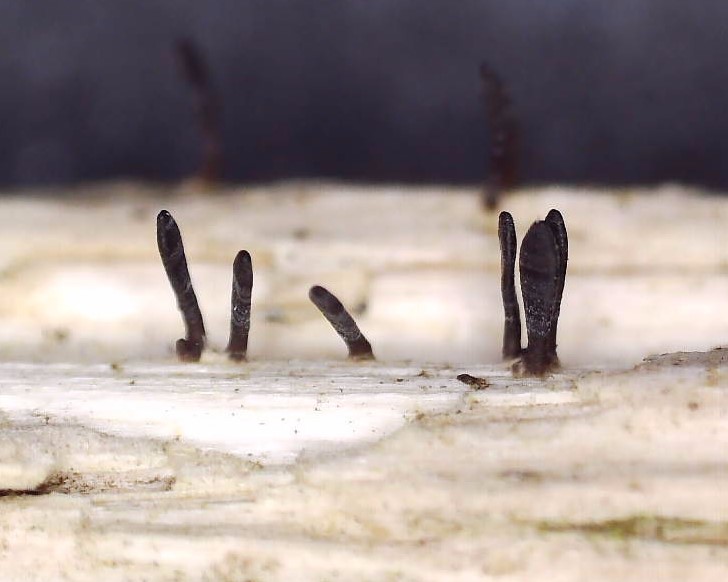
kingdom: Fungi
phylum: Ascomycota
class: Dothideomycetes
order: Acrospermales
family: Acrospermaceae
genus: Acrospermum
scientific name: Acrospermum compressum
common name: nælde-stængeltunge
